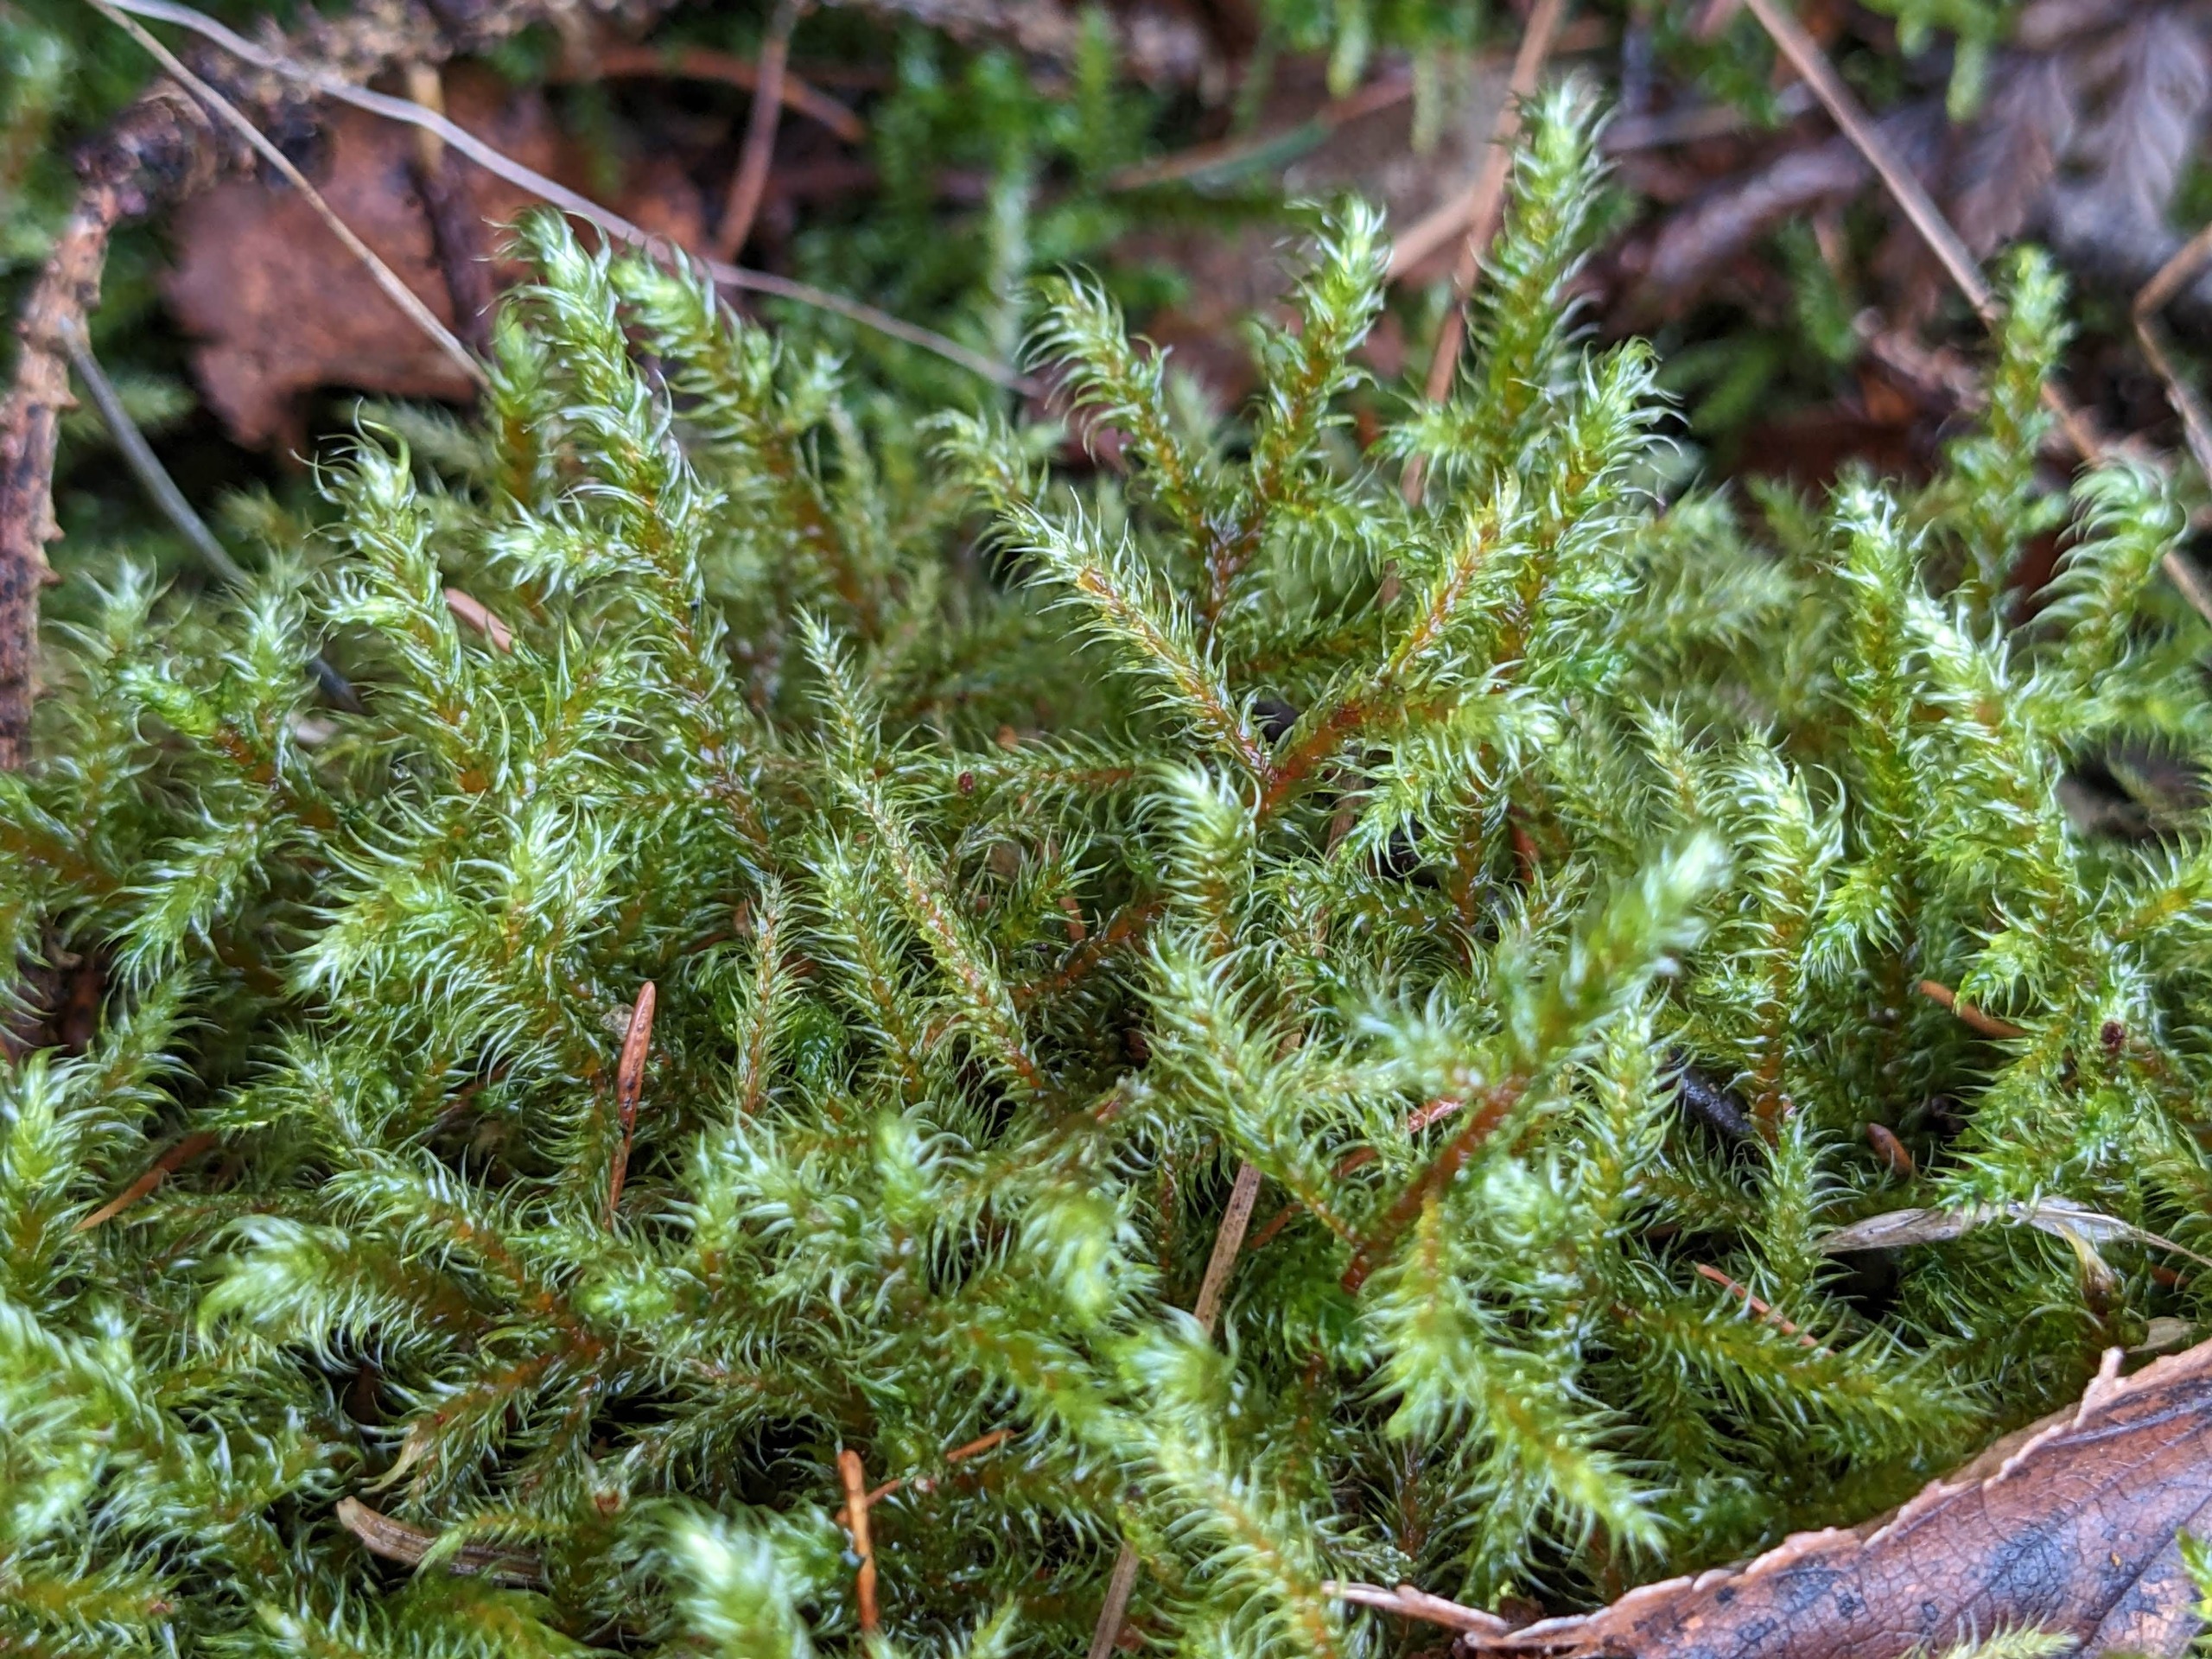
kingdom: Plantae
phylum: Bryophyta
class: Bryopsida
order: Hypnales
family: Hylocomiaceae
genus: Rhytidiadelphus
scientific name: Rhytidiadelphus loreus
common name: Ulvefod-kransemos
